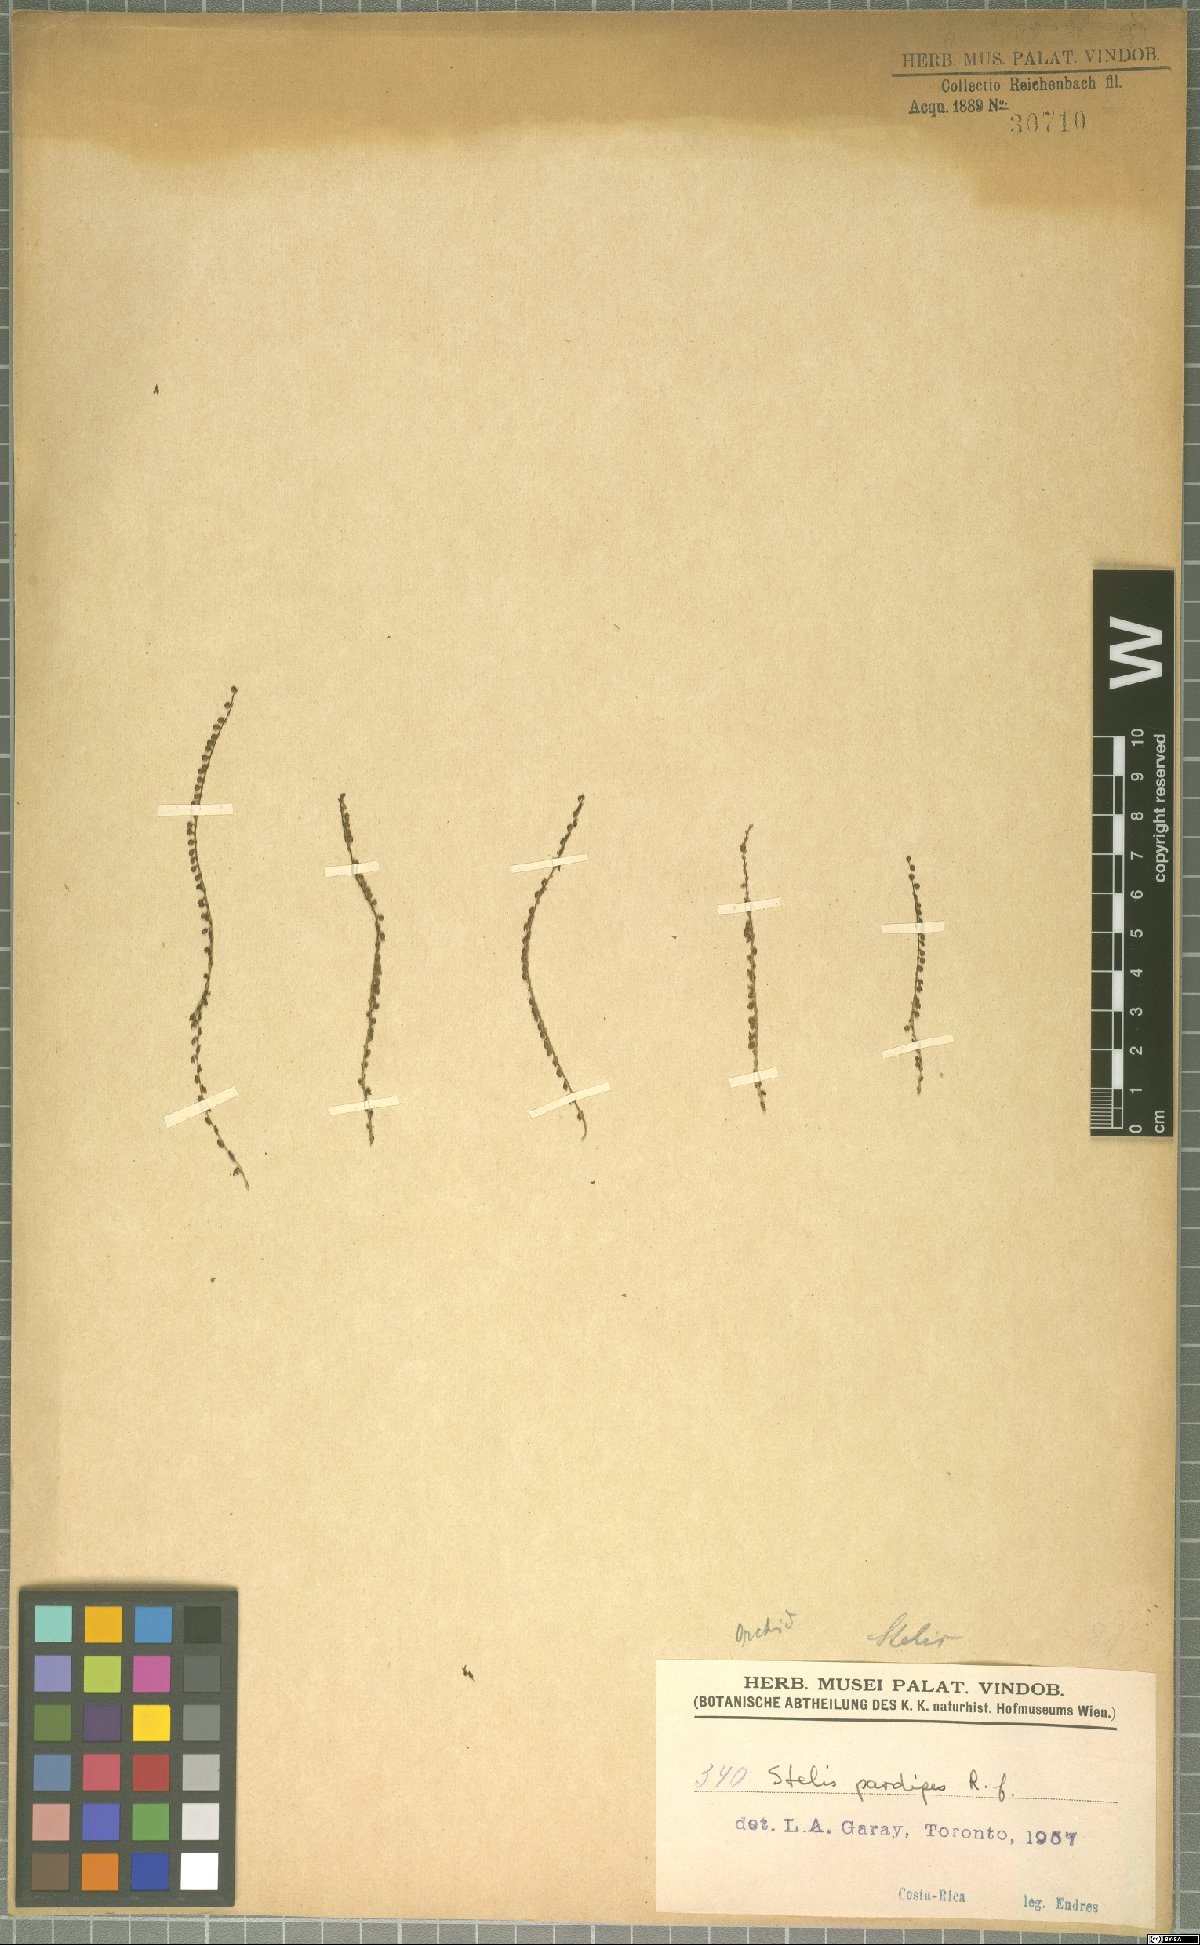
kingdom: Plantae
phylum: Tracheophyta
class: Liliopsida
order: Asparagales
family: Orchidaceae
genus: Stelis
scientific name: Stelis pardipes
